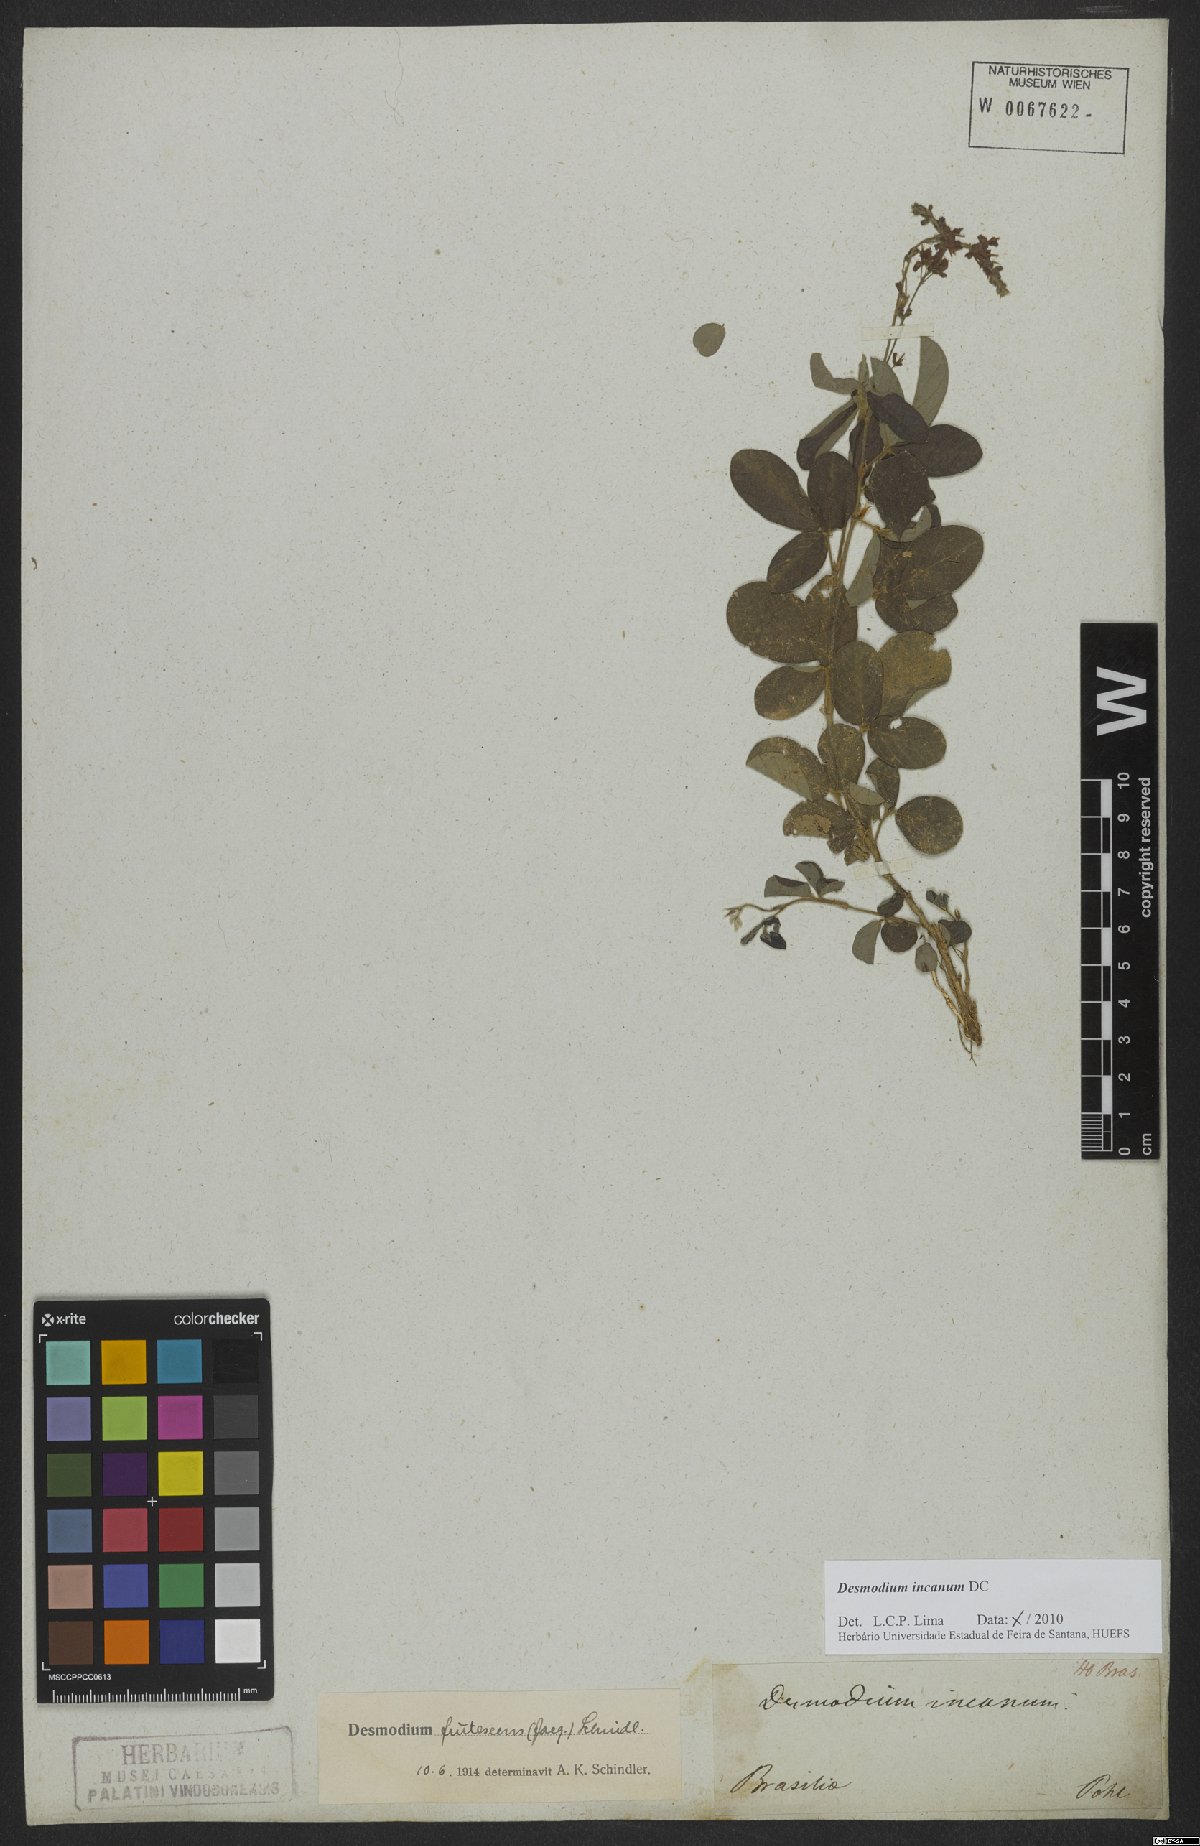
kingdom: Plantae
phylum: Tracheophyta
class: Magnoliopsida
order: Fabales
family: Fabaceae
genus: Desmodium
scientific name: Desmodium incanum
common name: Tickclover
